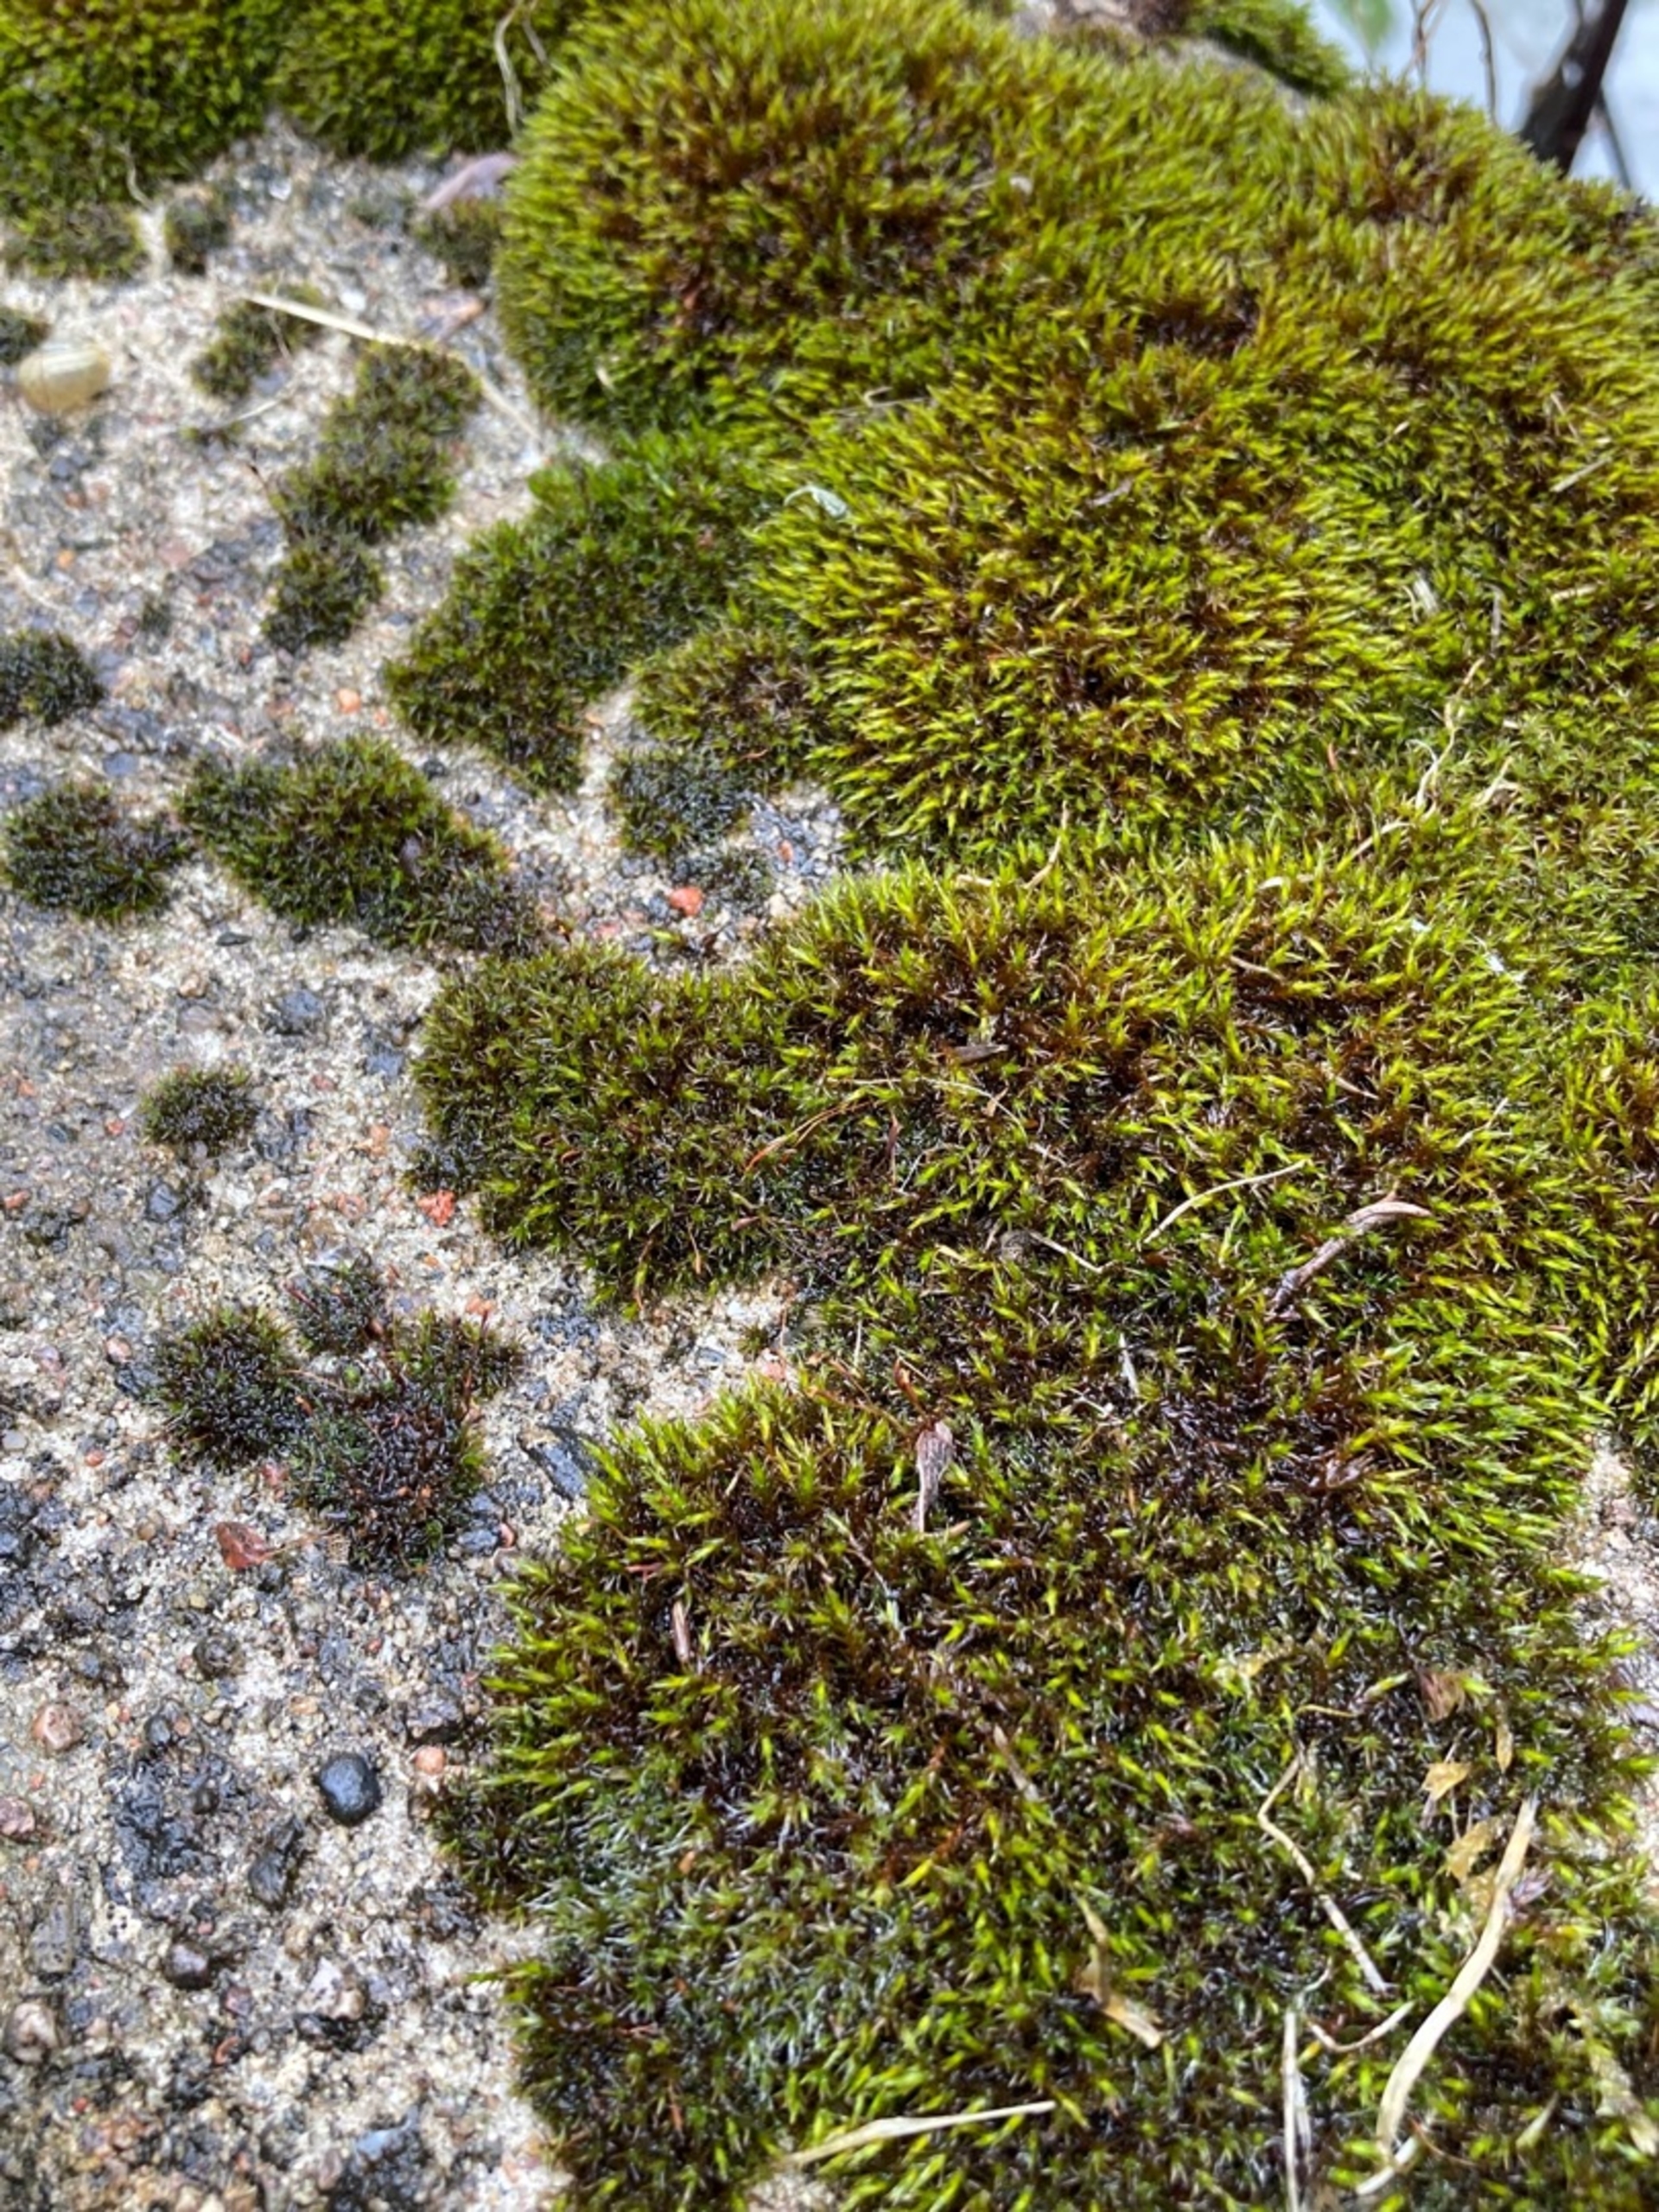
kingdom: Plantae
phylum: Bryophyta
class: Bryopsida
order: Grimmiales
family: Grimmiaceae
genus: Schistidium
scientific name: Schistidium
